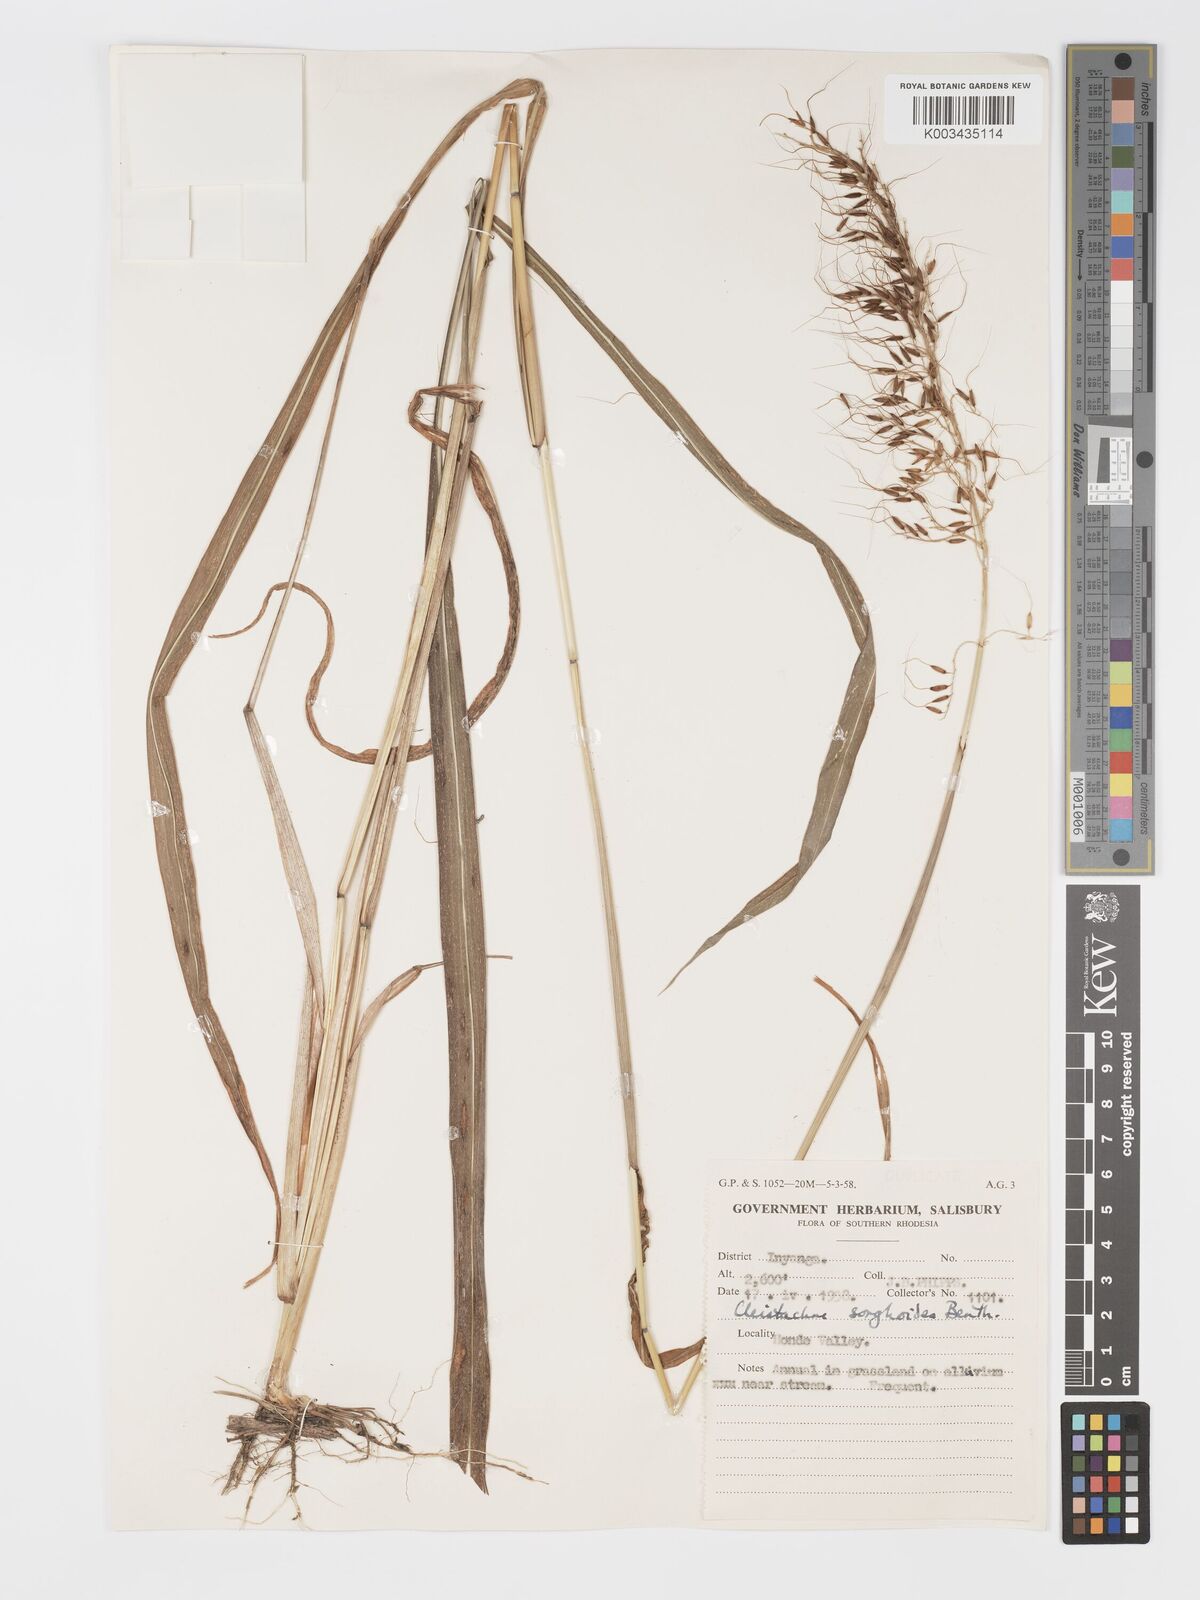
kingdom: Plantae
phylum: Tracheophyta
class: Liliopsida
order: Poales
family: Poaceae
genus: Cleistachne
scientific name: Cleistachne sorghoides
